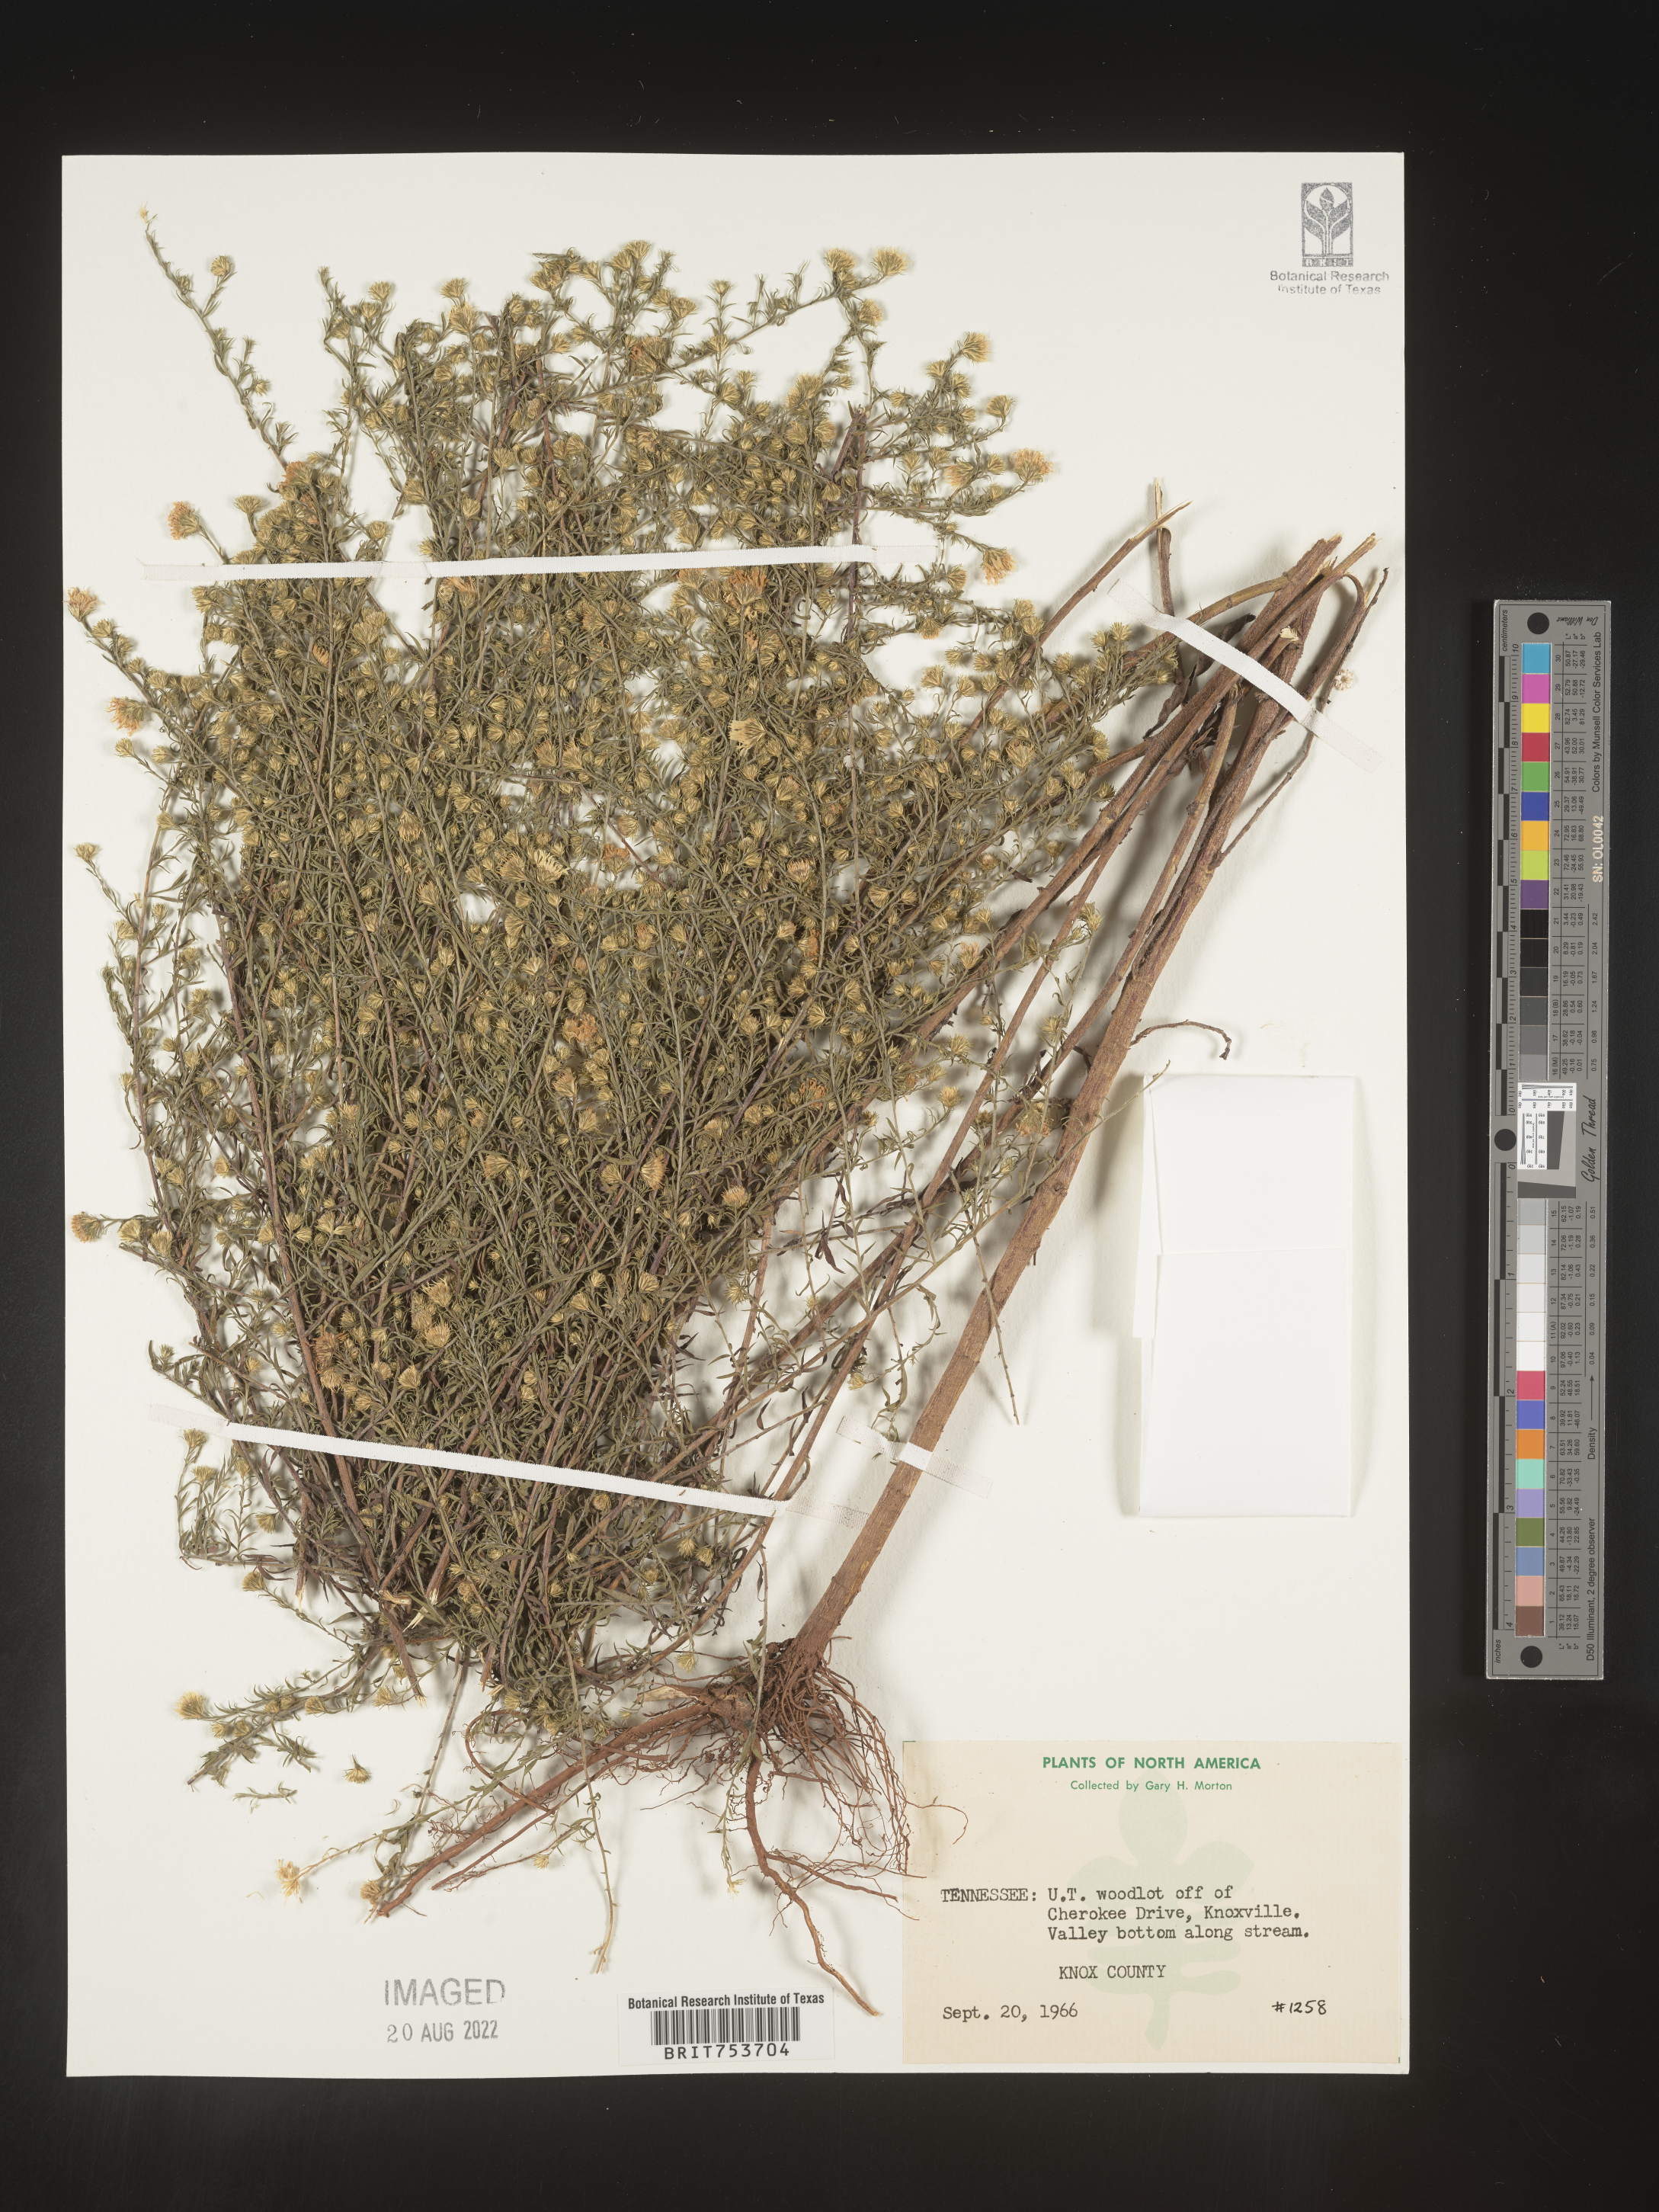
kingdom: Plantae
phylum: Tracheophyta
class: Magnoliopsida
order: Asterales
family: Asteraceae
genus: Symphyotrichum
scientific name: Symphyotrichum pilosum
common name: Awl aster
